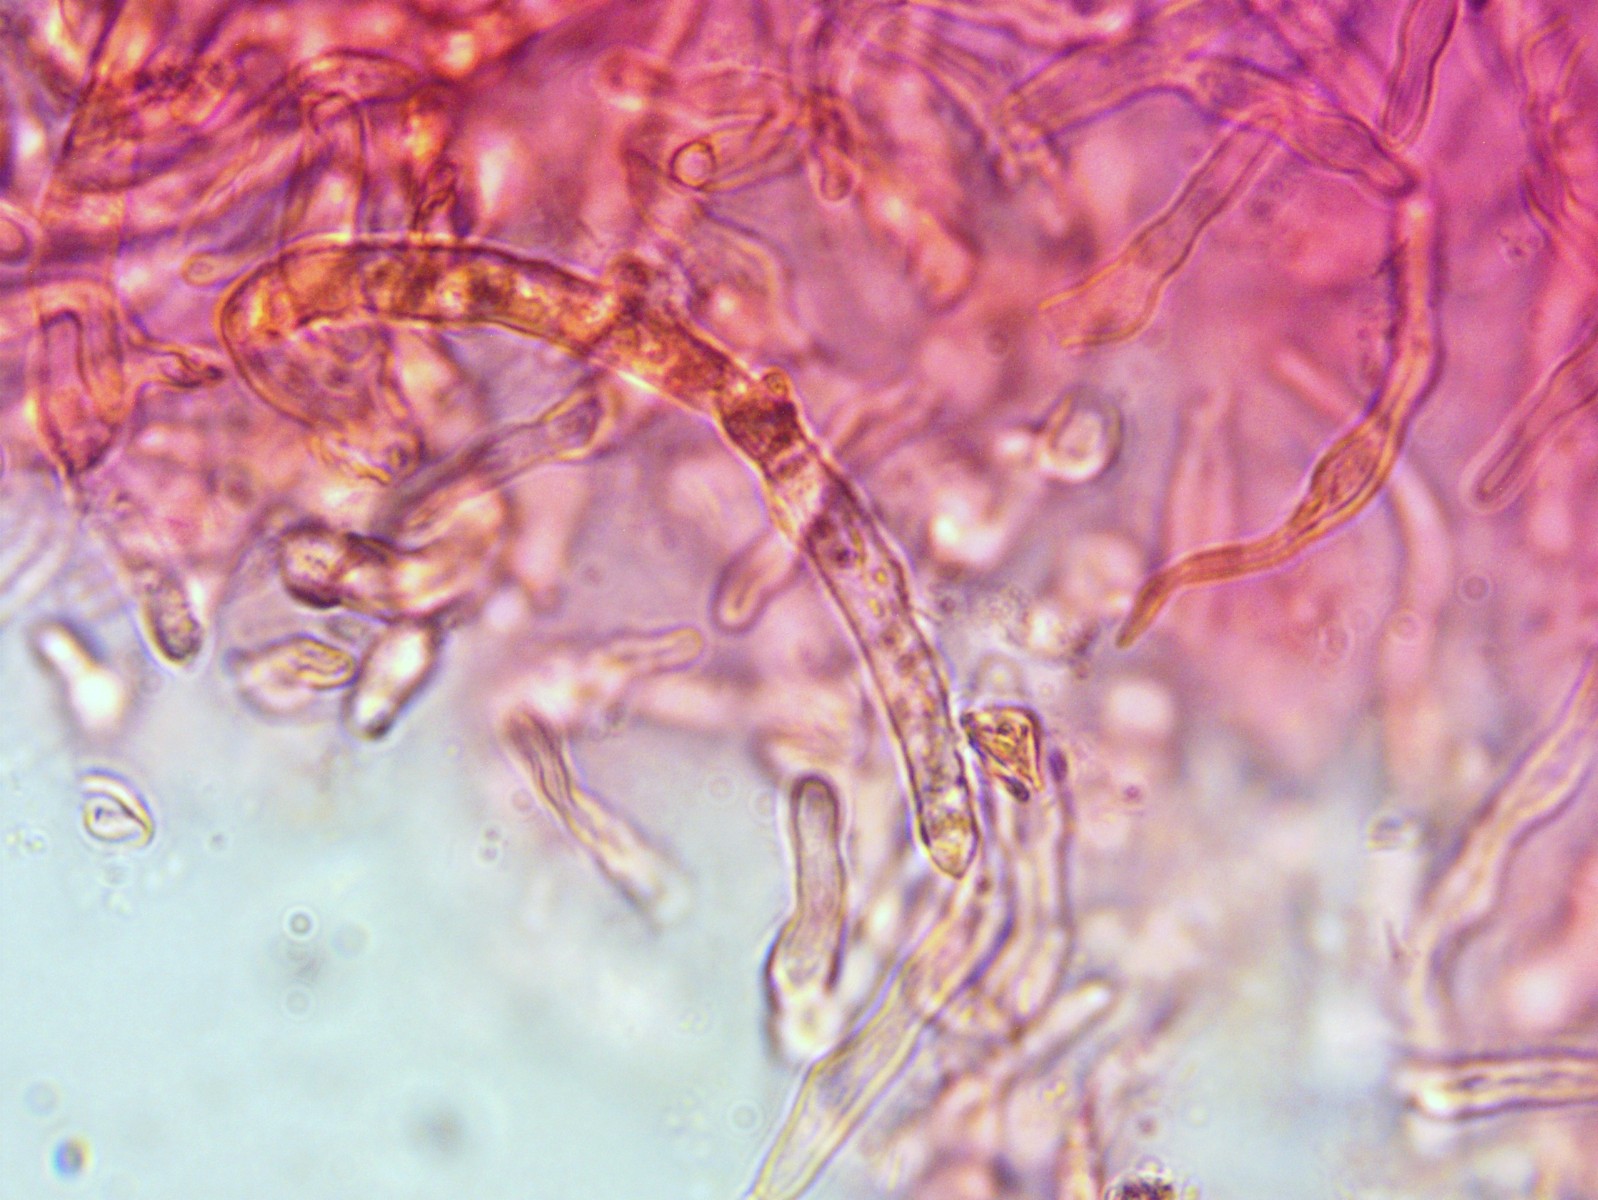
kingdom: Fungi
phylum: Basidiomycota
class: Agaricomycetes
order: Russulales
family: Russulaceae
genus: Russula
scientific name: Russula
